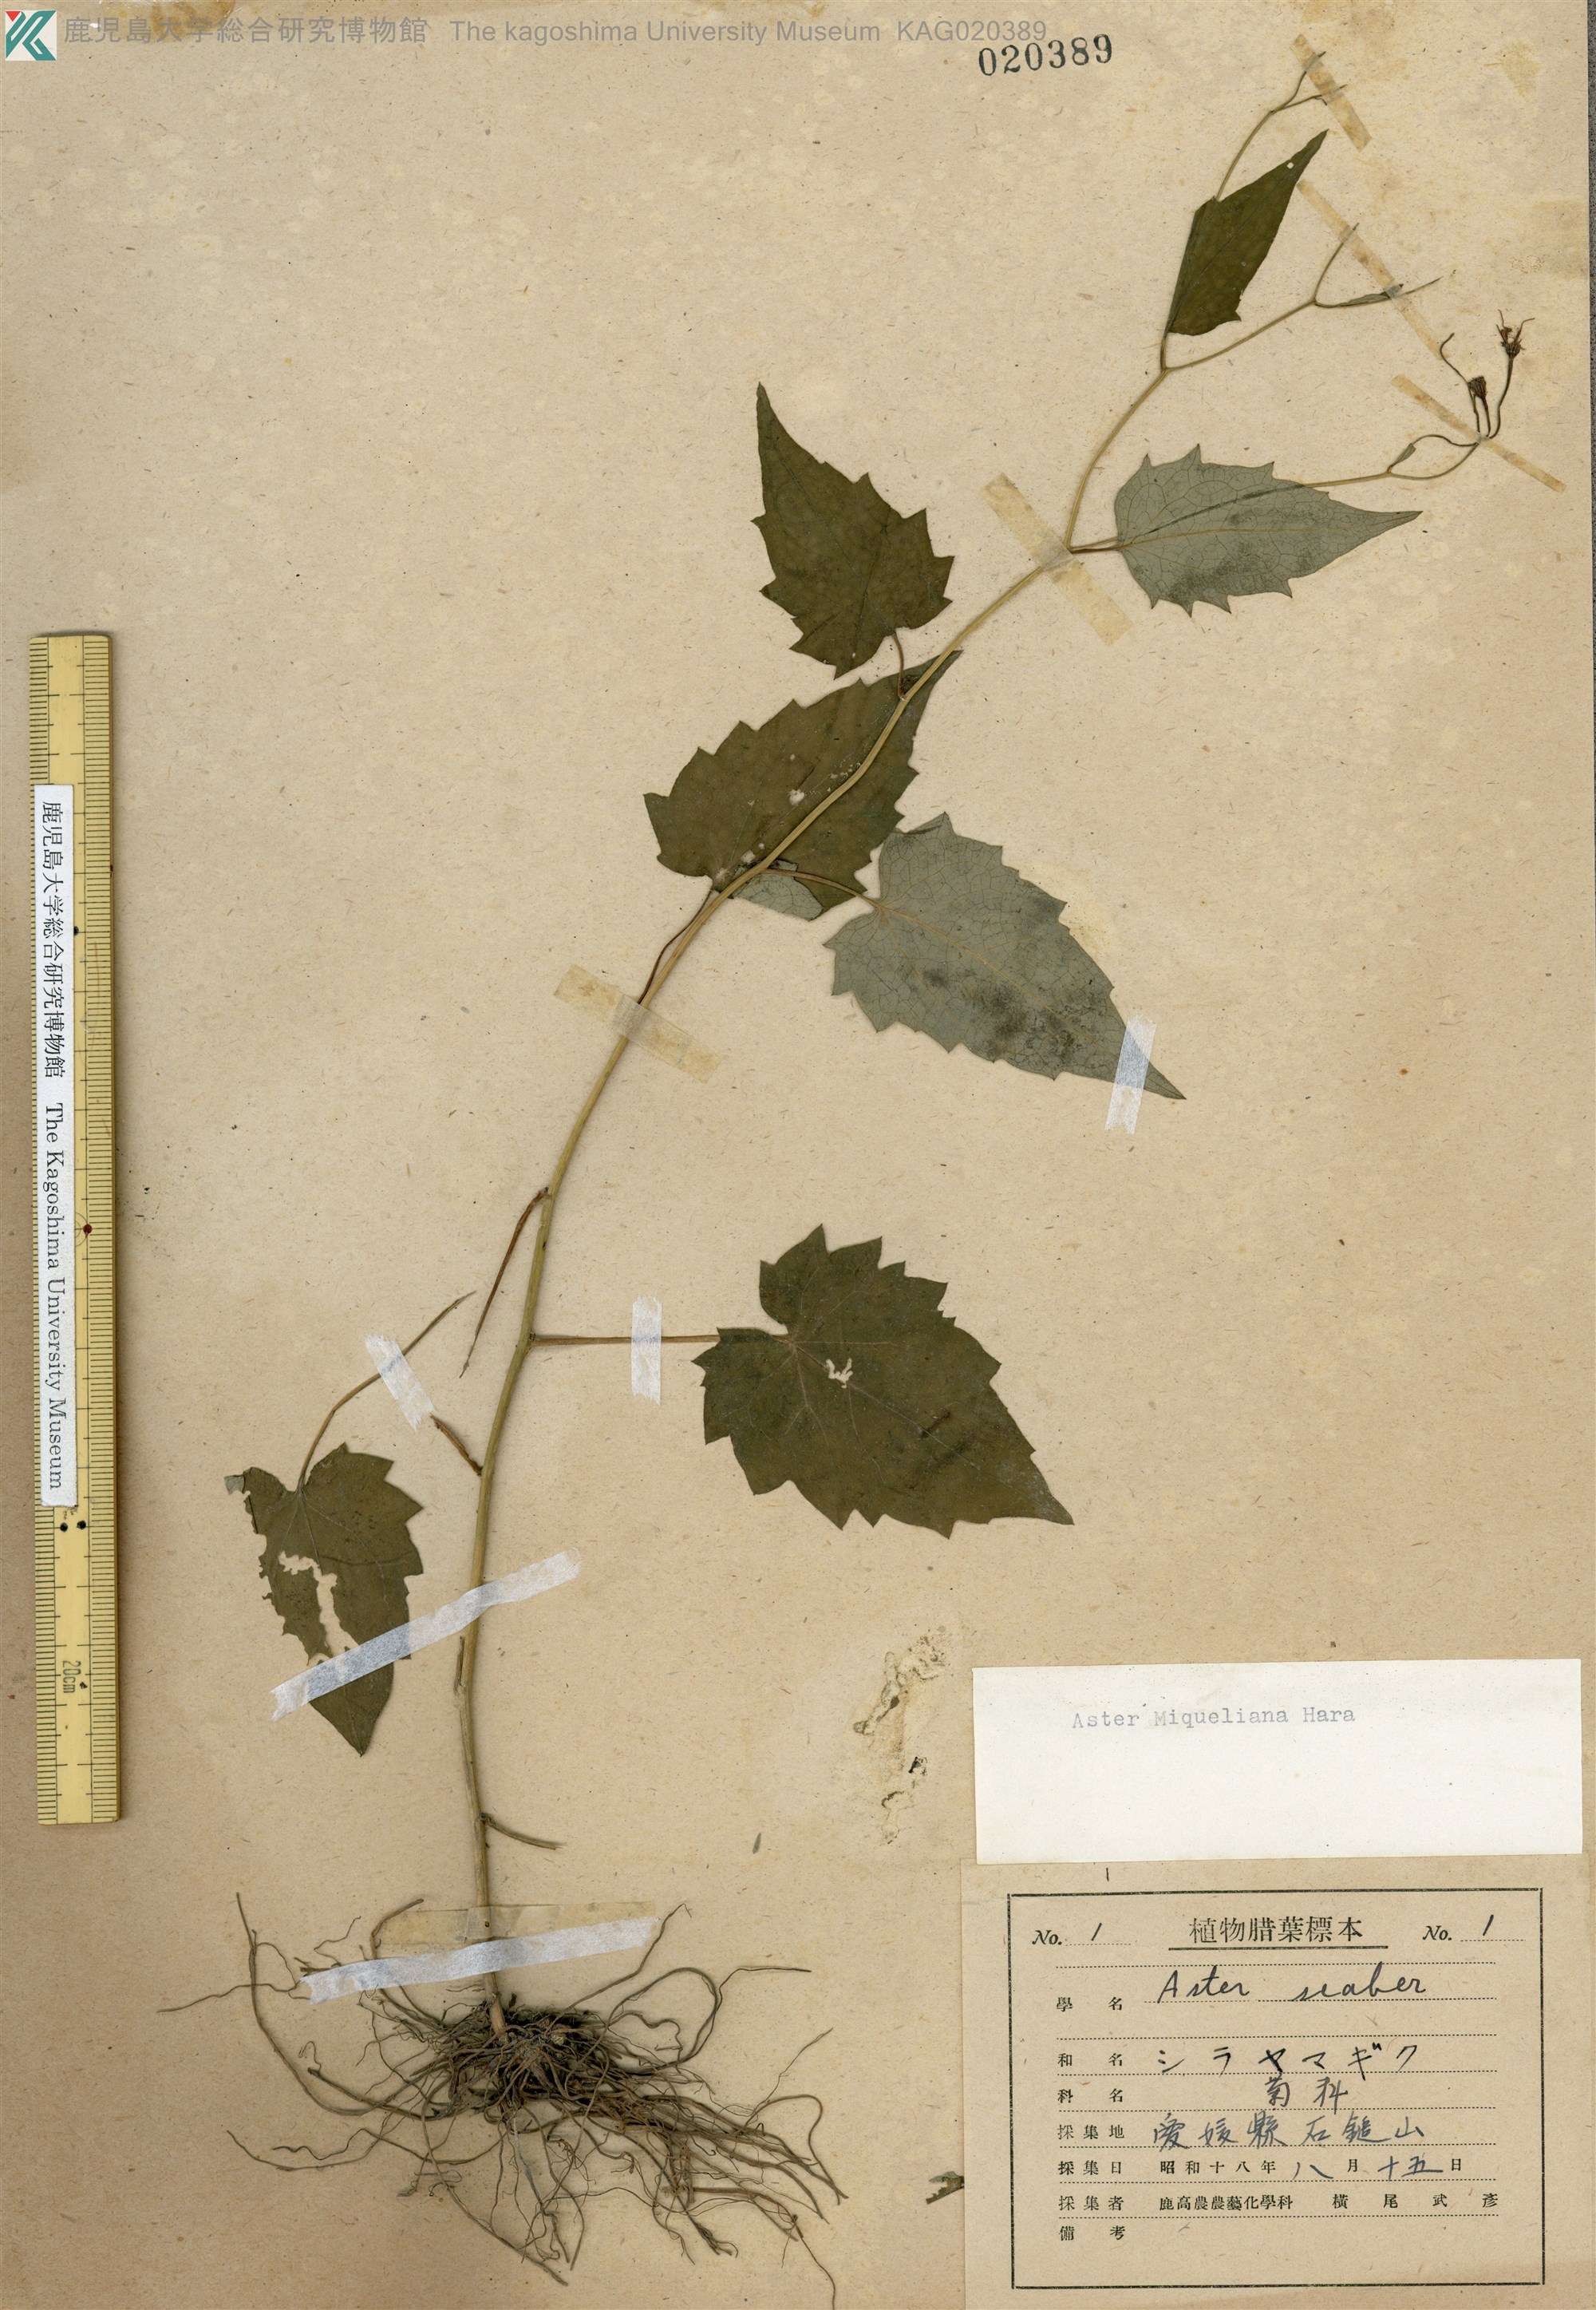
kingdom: Plantae
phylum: Tracheophyta
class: Magnoliopsida
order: Asterales
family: Asteraceae
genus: Cardiagyris
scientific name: Cardiagyris miquelianus
